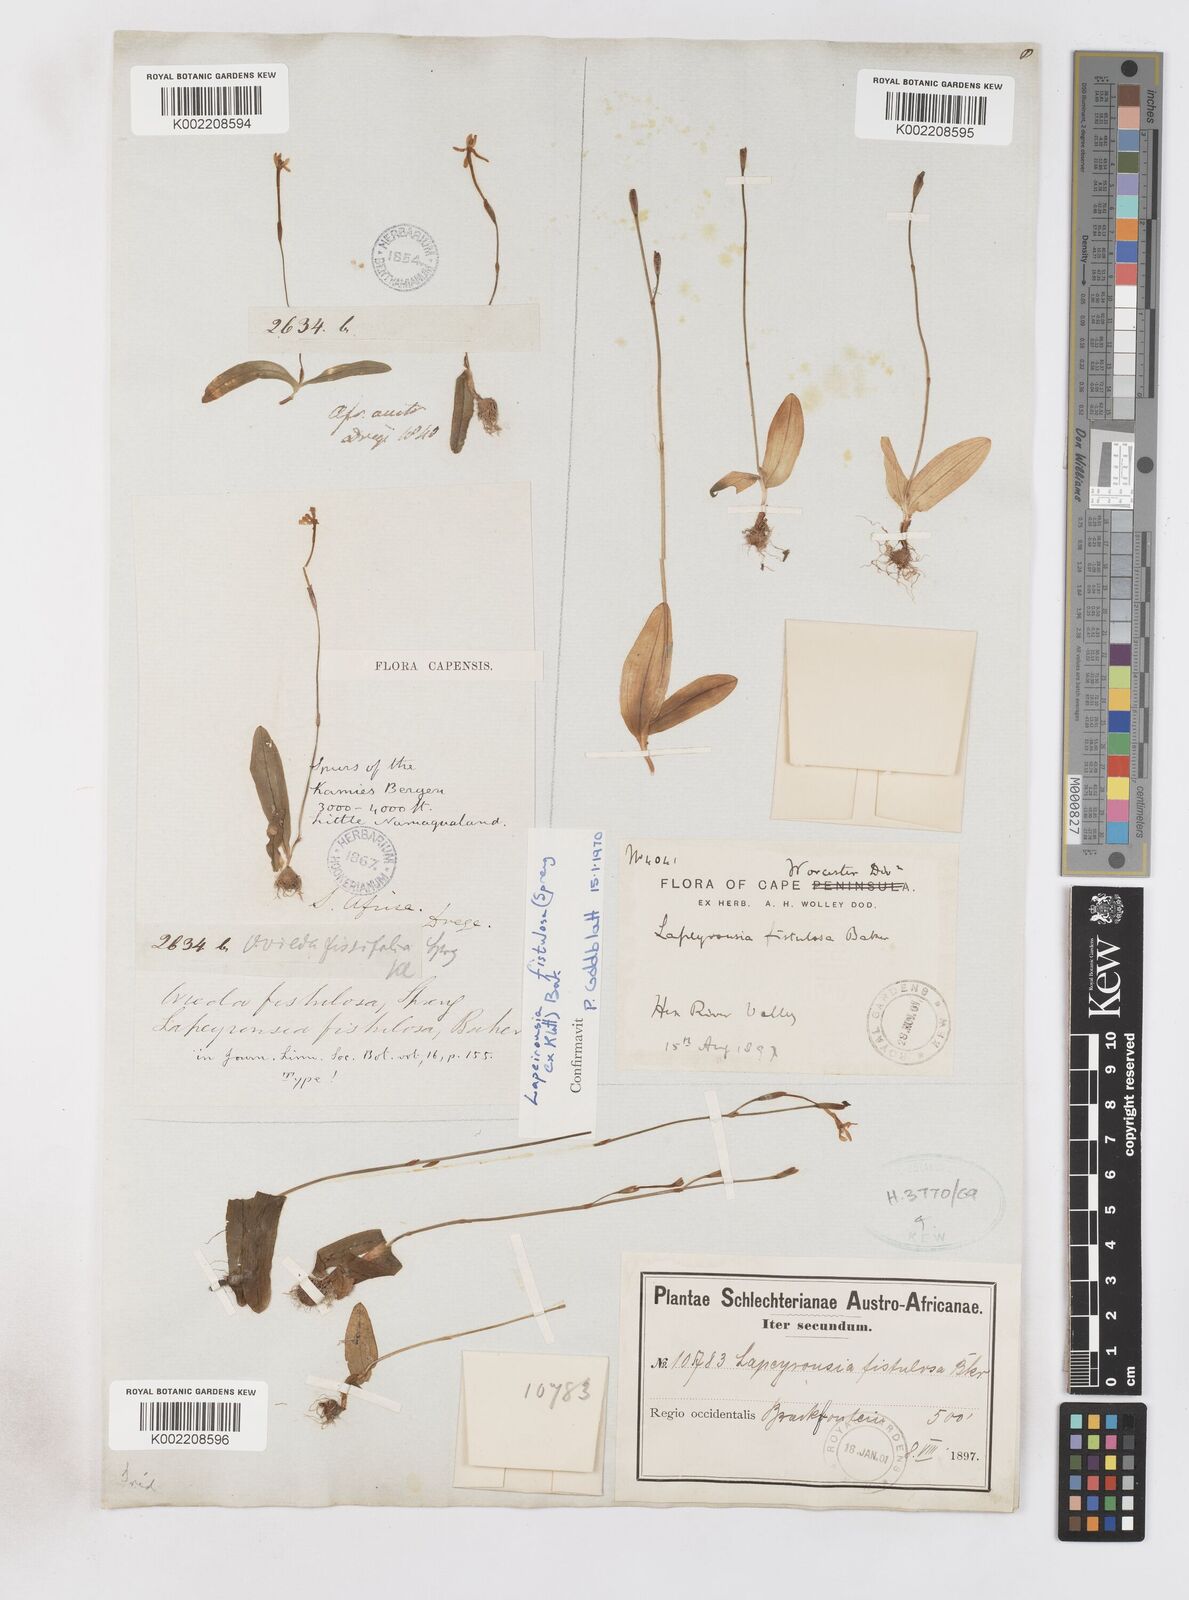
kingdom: Plantae
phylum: Tracheophyta
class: Liliopsida
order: Asparagales
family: Iridaceae
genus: Xenoscapa
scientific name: Xenoscapa fistulosa
